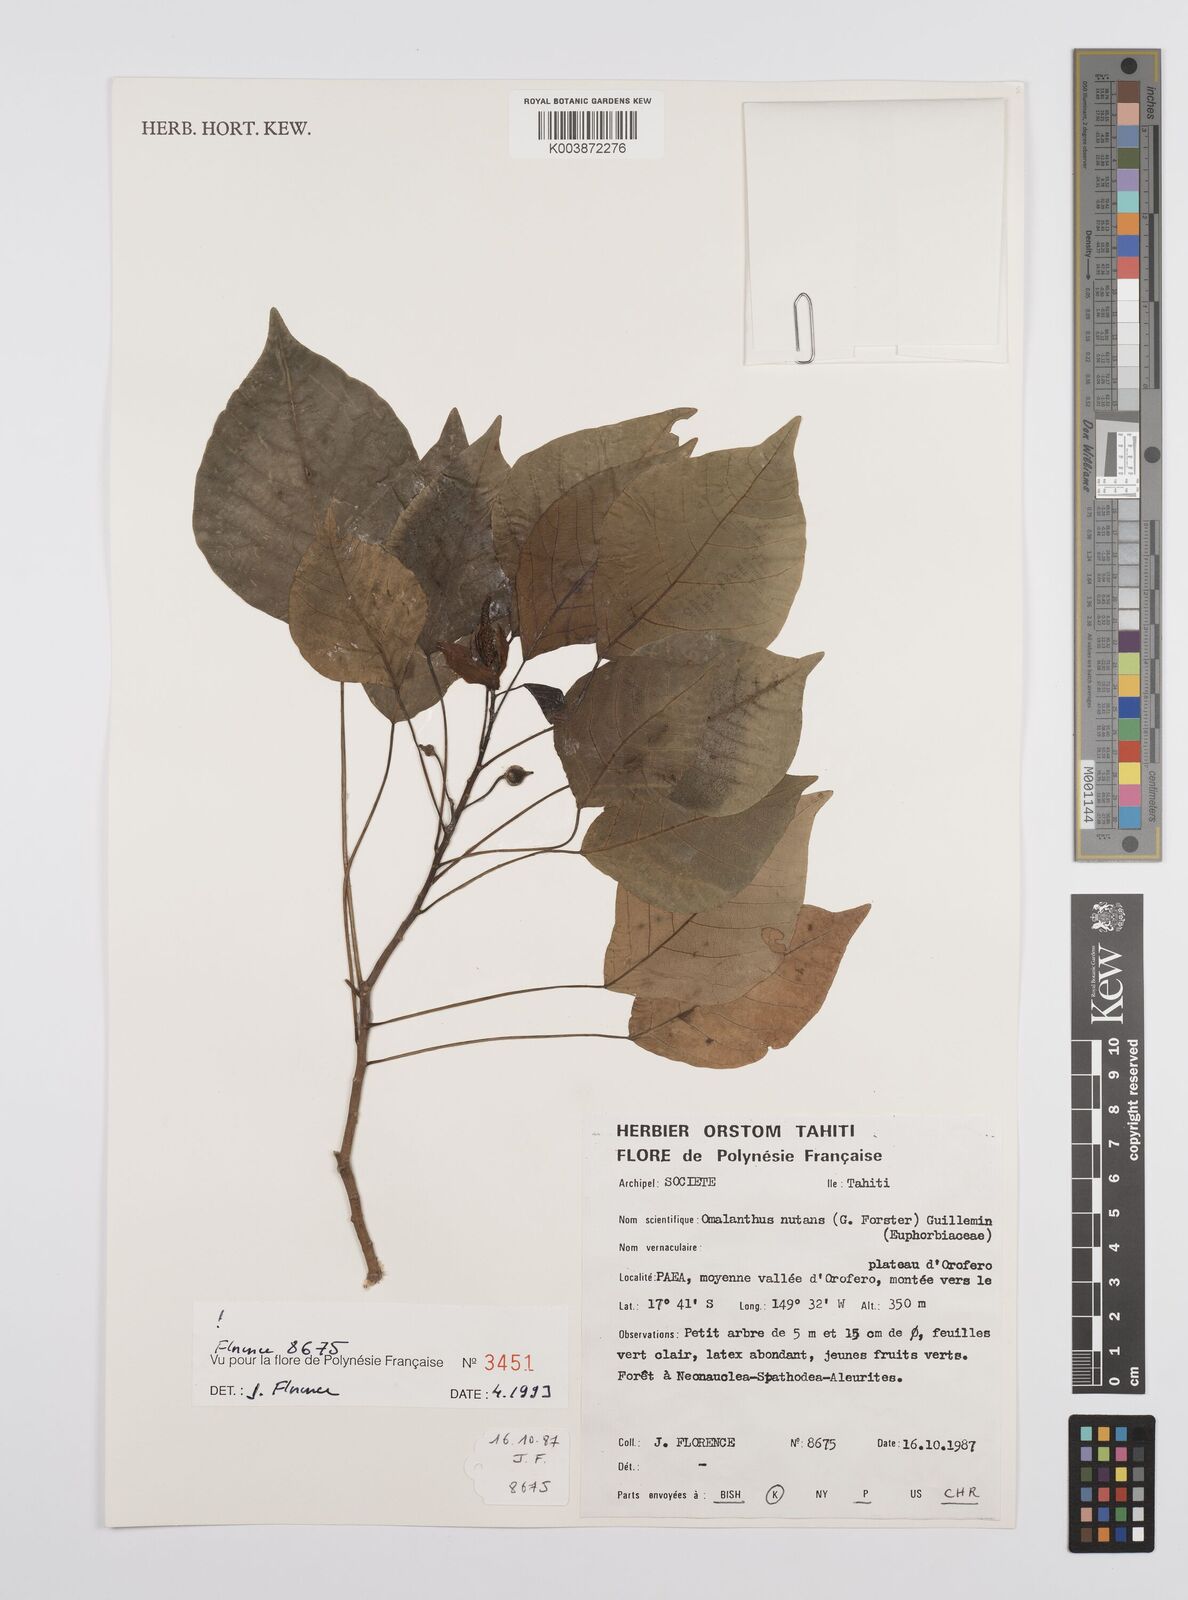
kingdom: Plantae
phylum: Tracheophyta
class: Magnoliopsida
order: Malpighiales
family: Euphorbiaceae
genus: Homalanthus
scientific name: Homalanthus nutans
